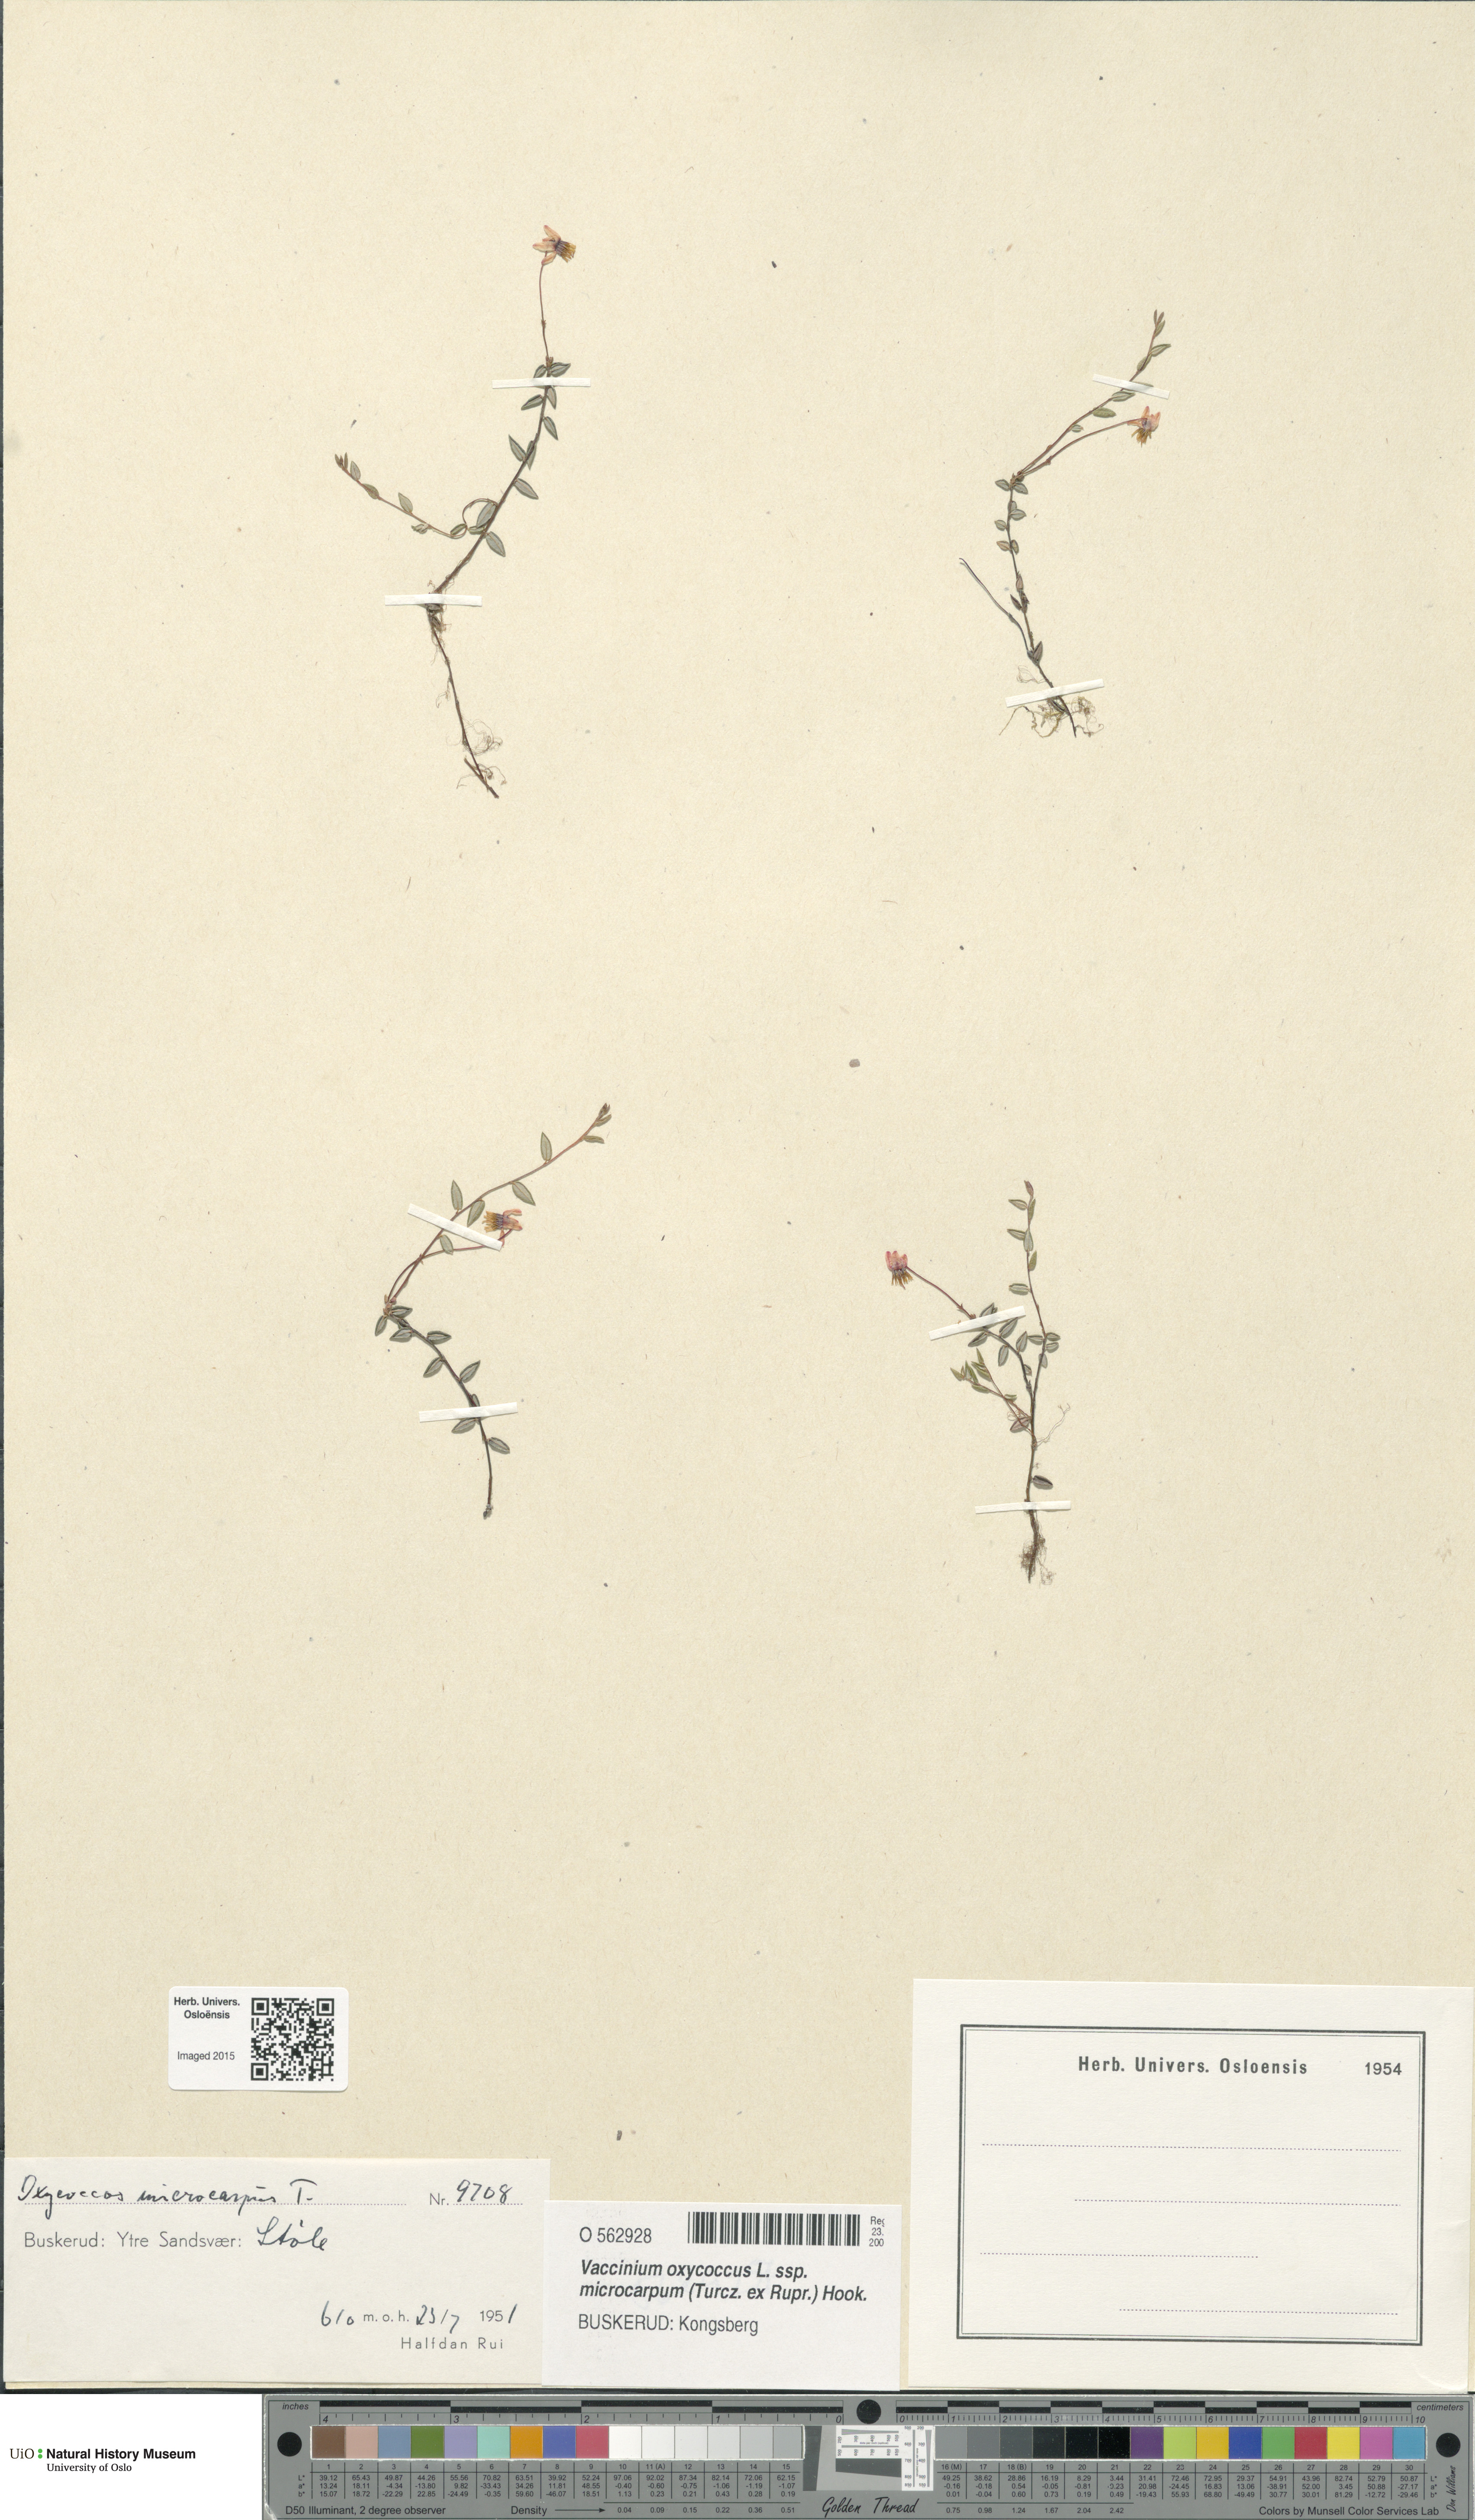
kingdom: Plantae
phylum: Tracheophyta
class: Magnoliopsida
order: Ericales
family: Ericaceae
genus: Vaccinium
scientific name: Vaccinium microcarpum
